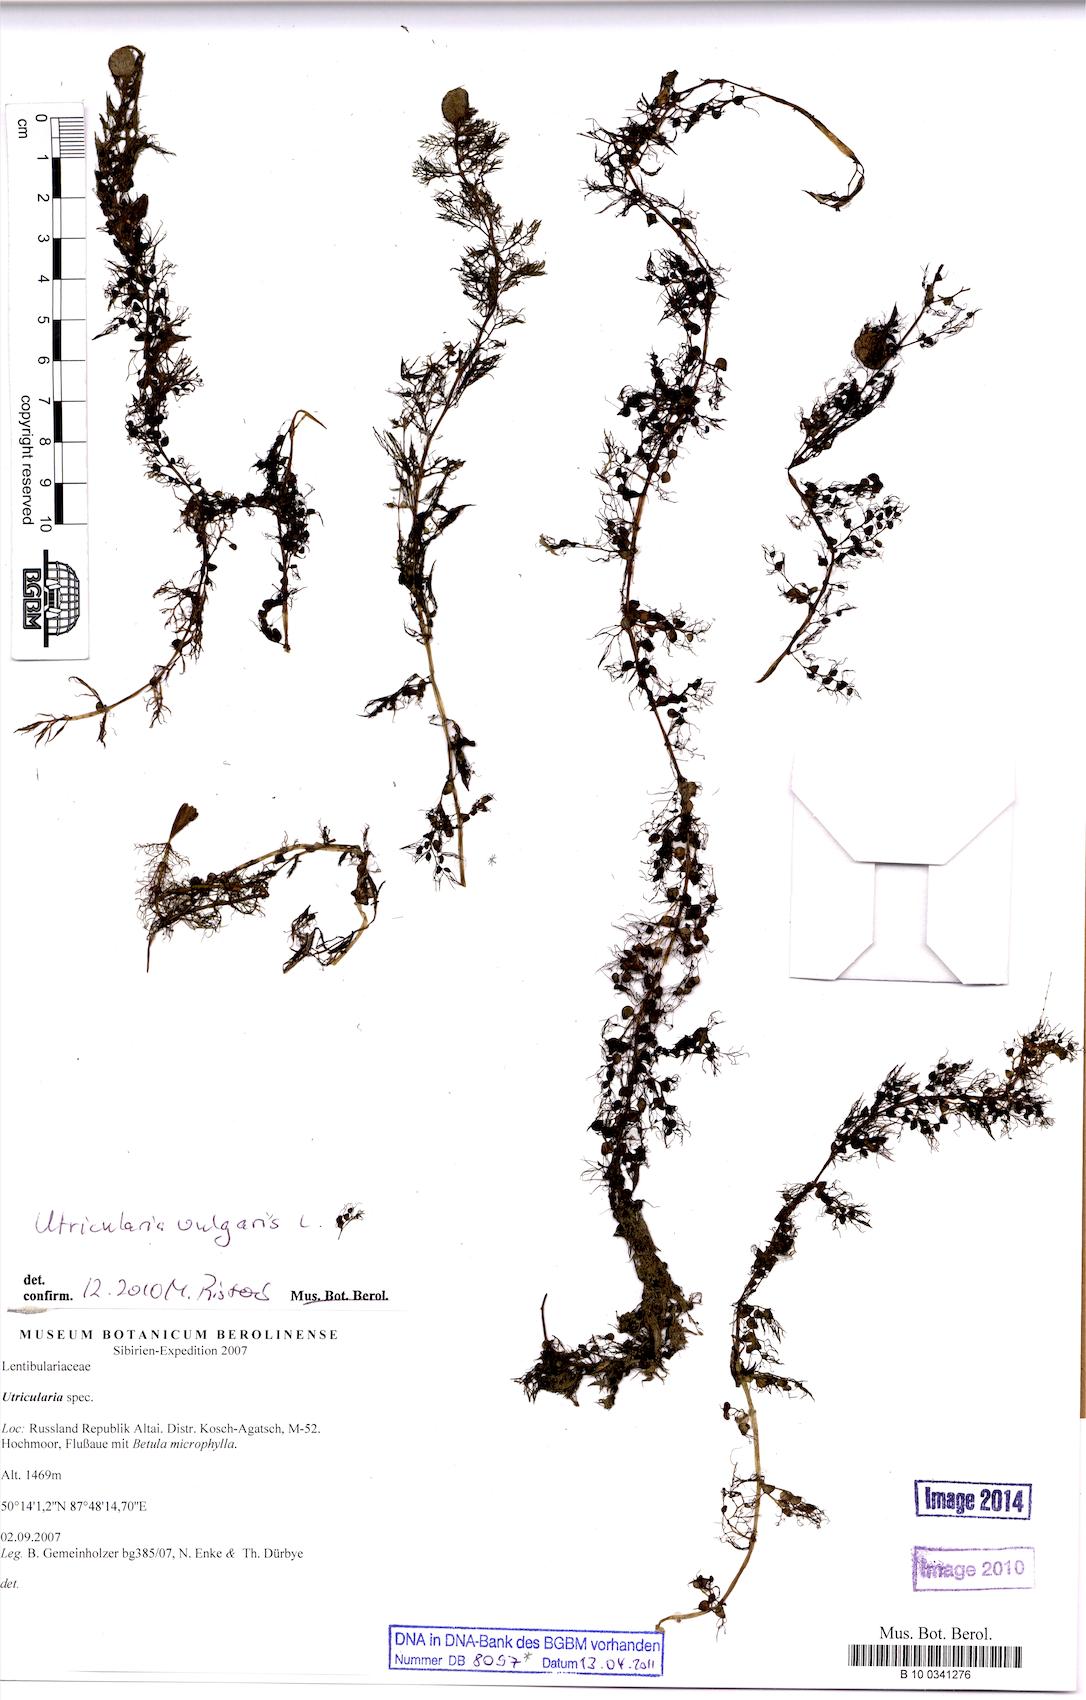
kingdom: Plantae
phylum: Tracheophyta
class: Magnoliopsida
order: Lamiales
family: Lentibulariaceae
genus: Utricularia
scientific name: Utricularia vulgaris
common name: Greater bladderwort
